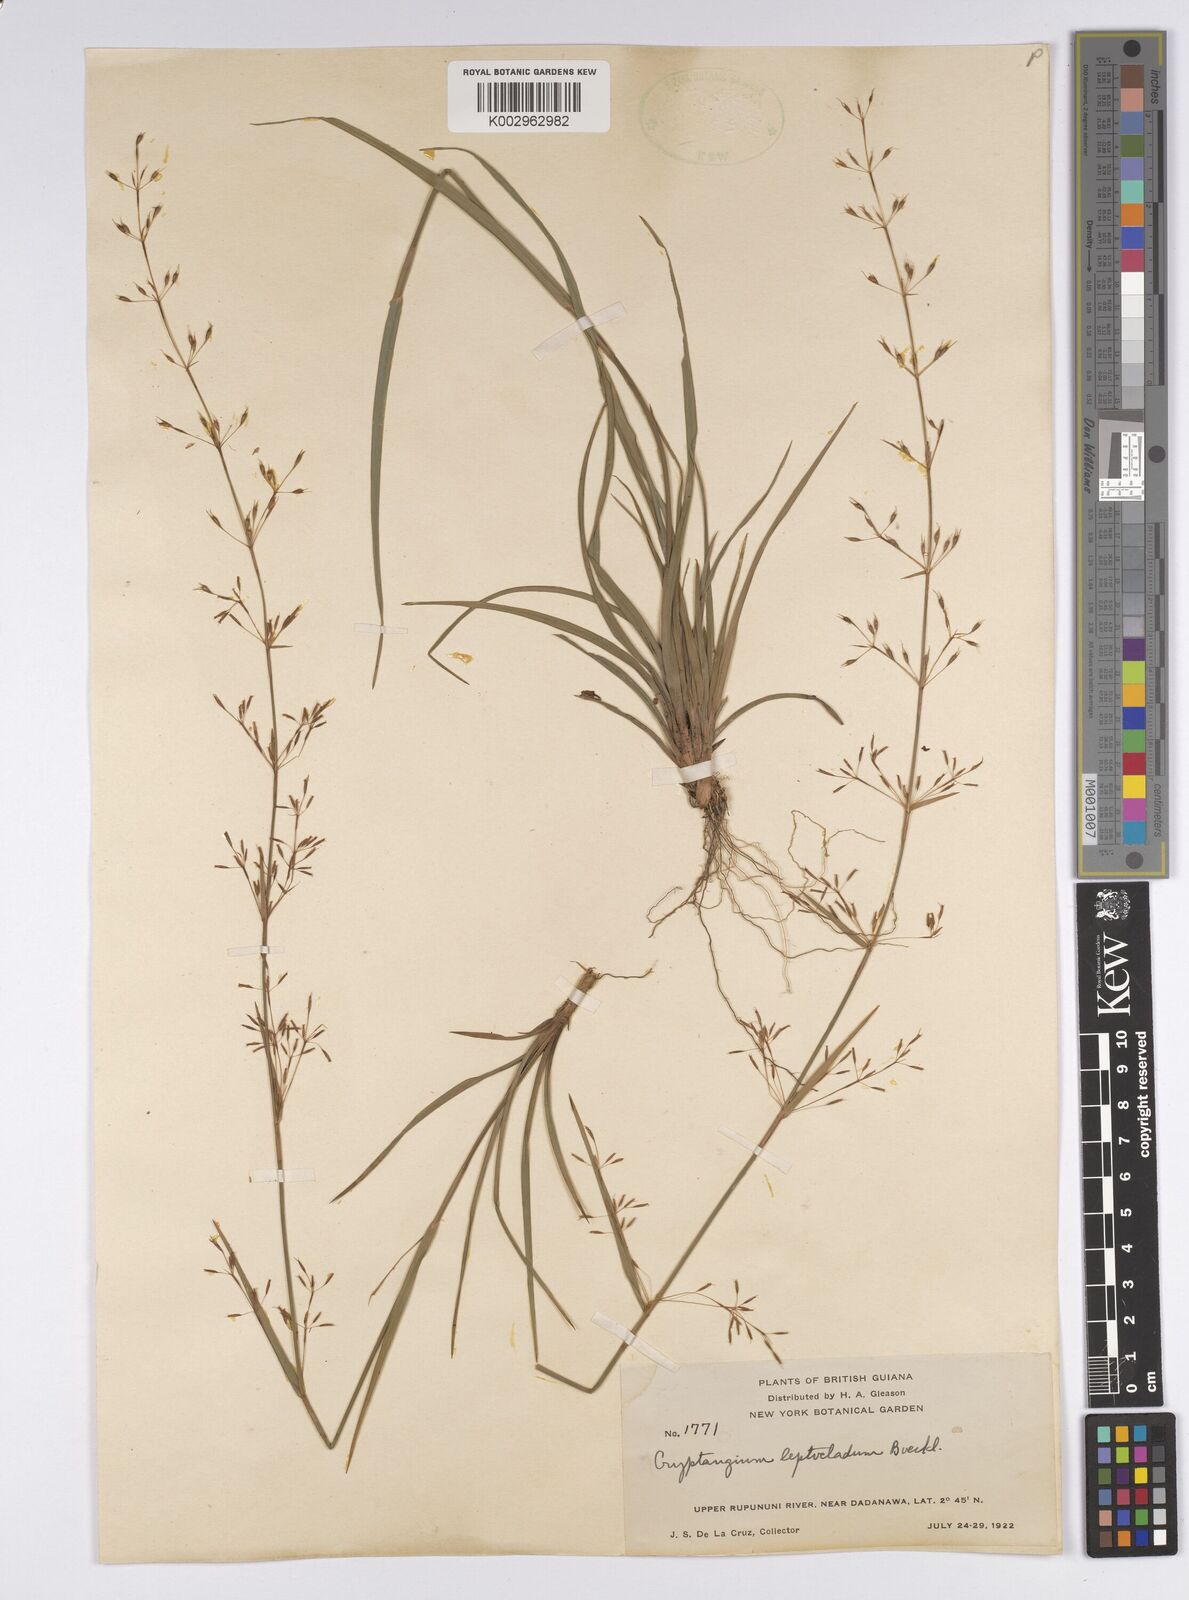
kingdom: Plantae
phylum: Tracheophyta
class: Liliopsida
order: Poales
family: Cyperaceae
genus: Cryptangium
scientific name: Cryptangium verticillatum
